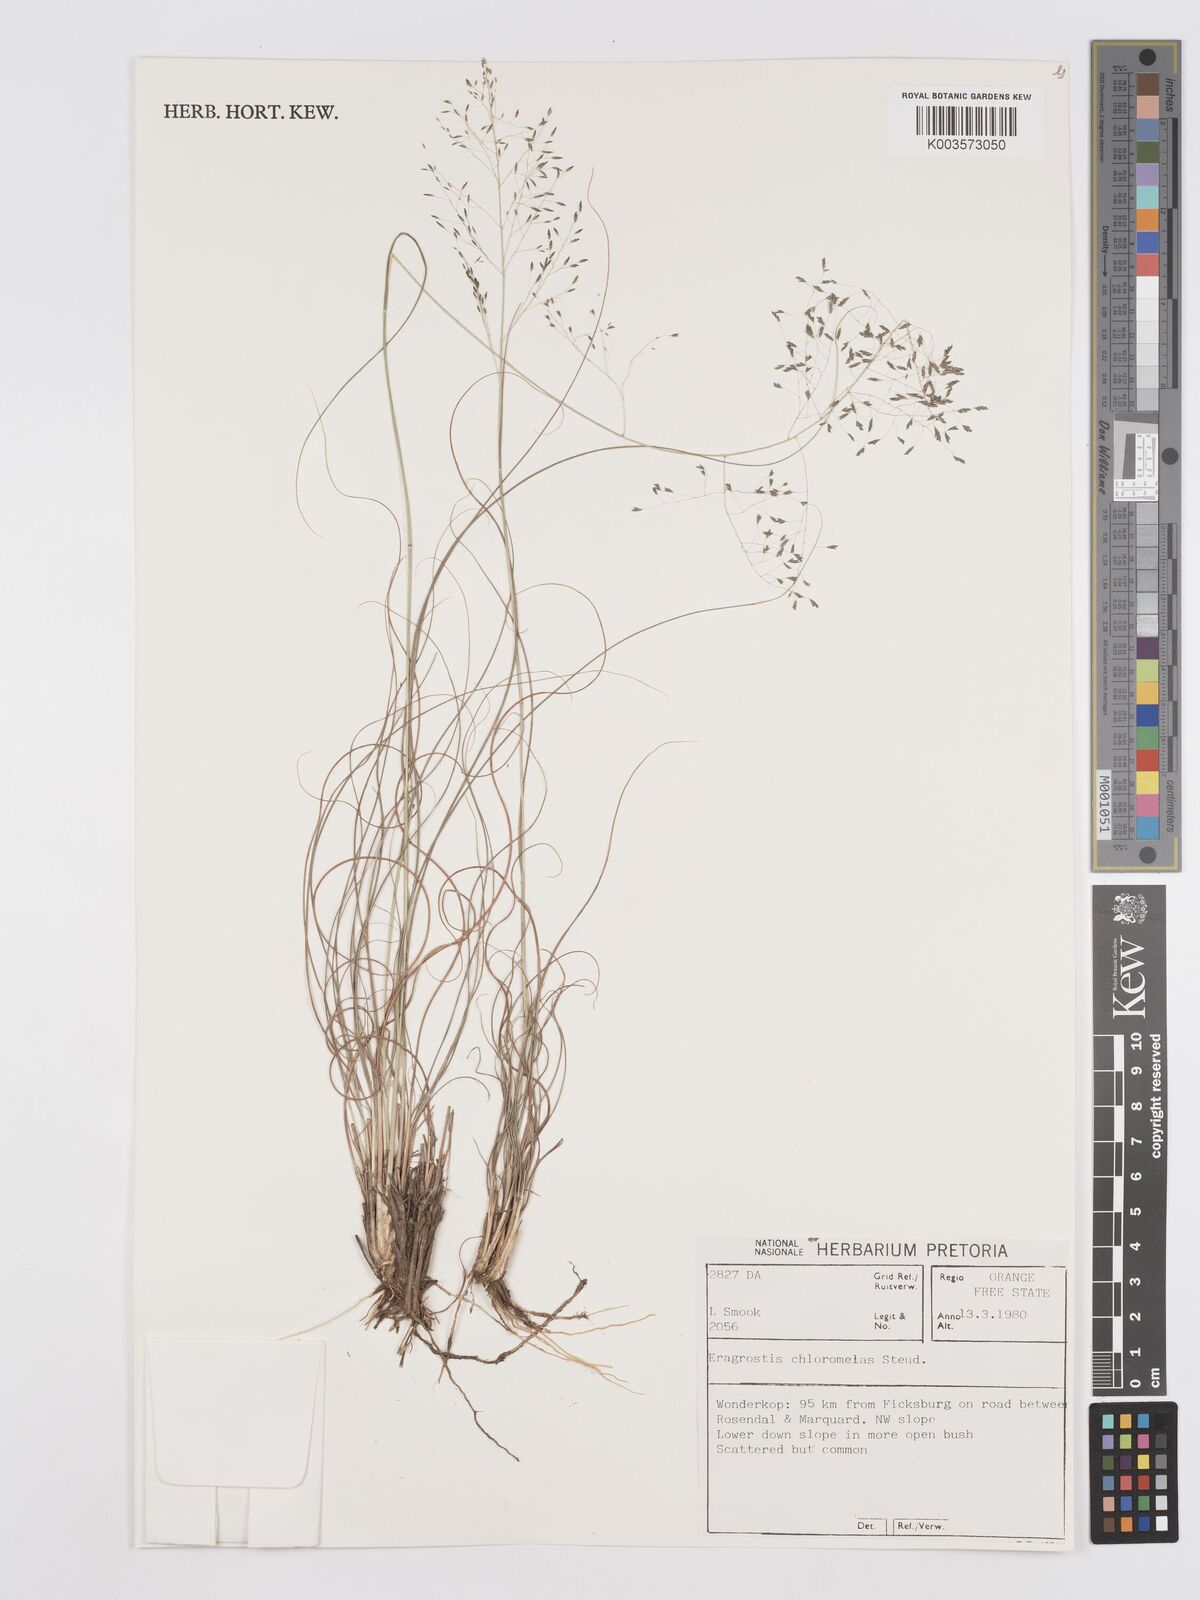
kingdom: Plantae
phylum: Tracheophyta
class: Liliopsida
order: Poales
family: Poaceae
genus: Eragrostis
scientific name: Eragrostis curvula
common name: African love-grass
